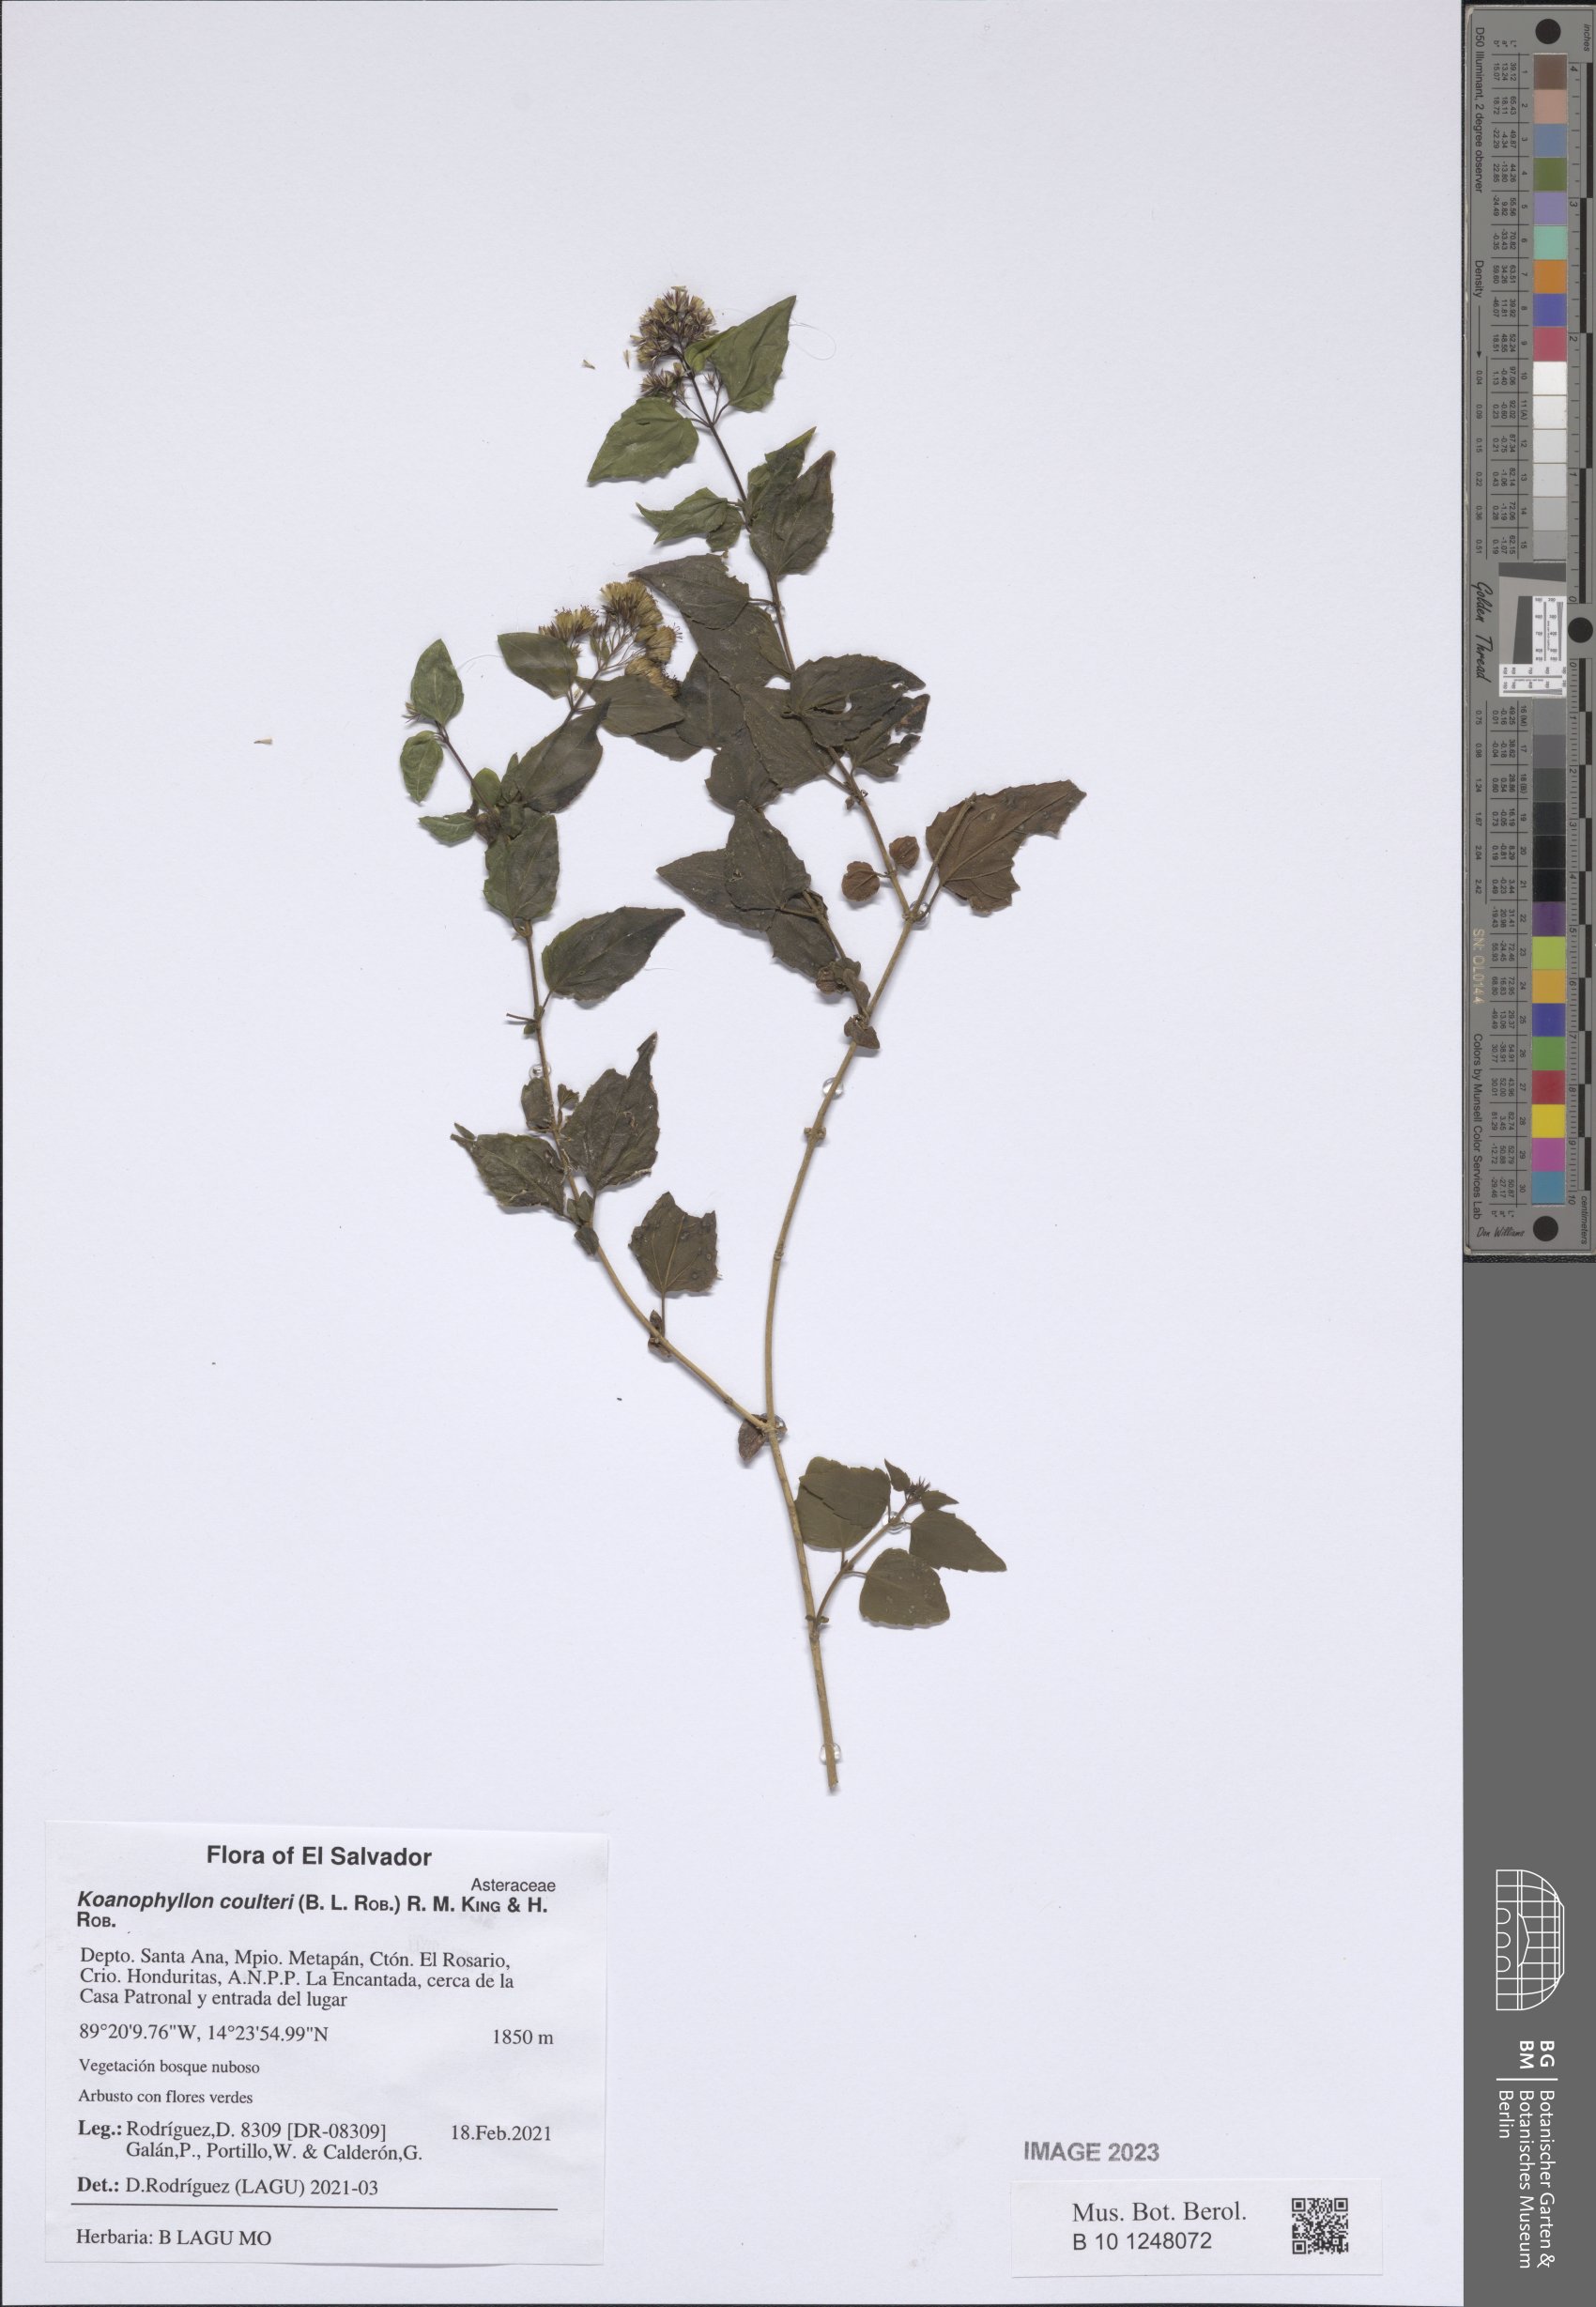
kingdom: Plantae
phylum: Tracheophyta
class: Magnoliopsida
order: Asterales
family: Asteraceae
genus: Koanophyllon
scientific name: Koanophyllon coulteri
